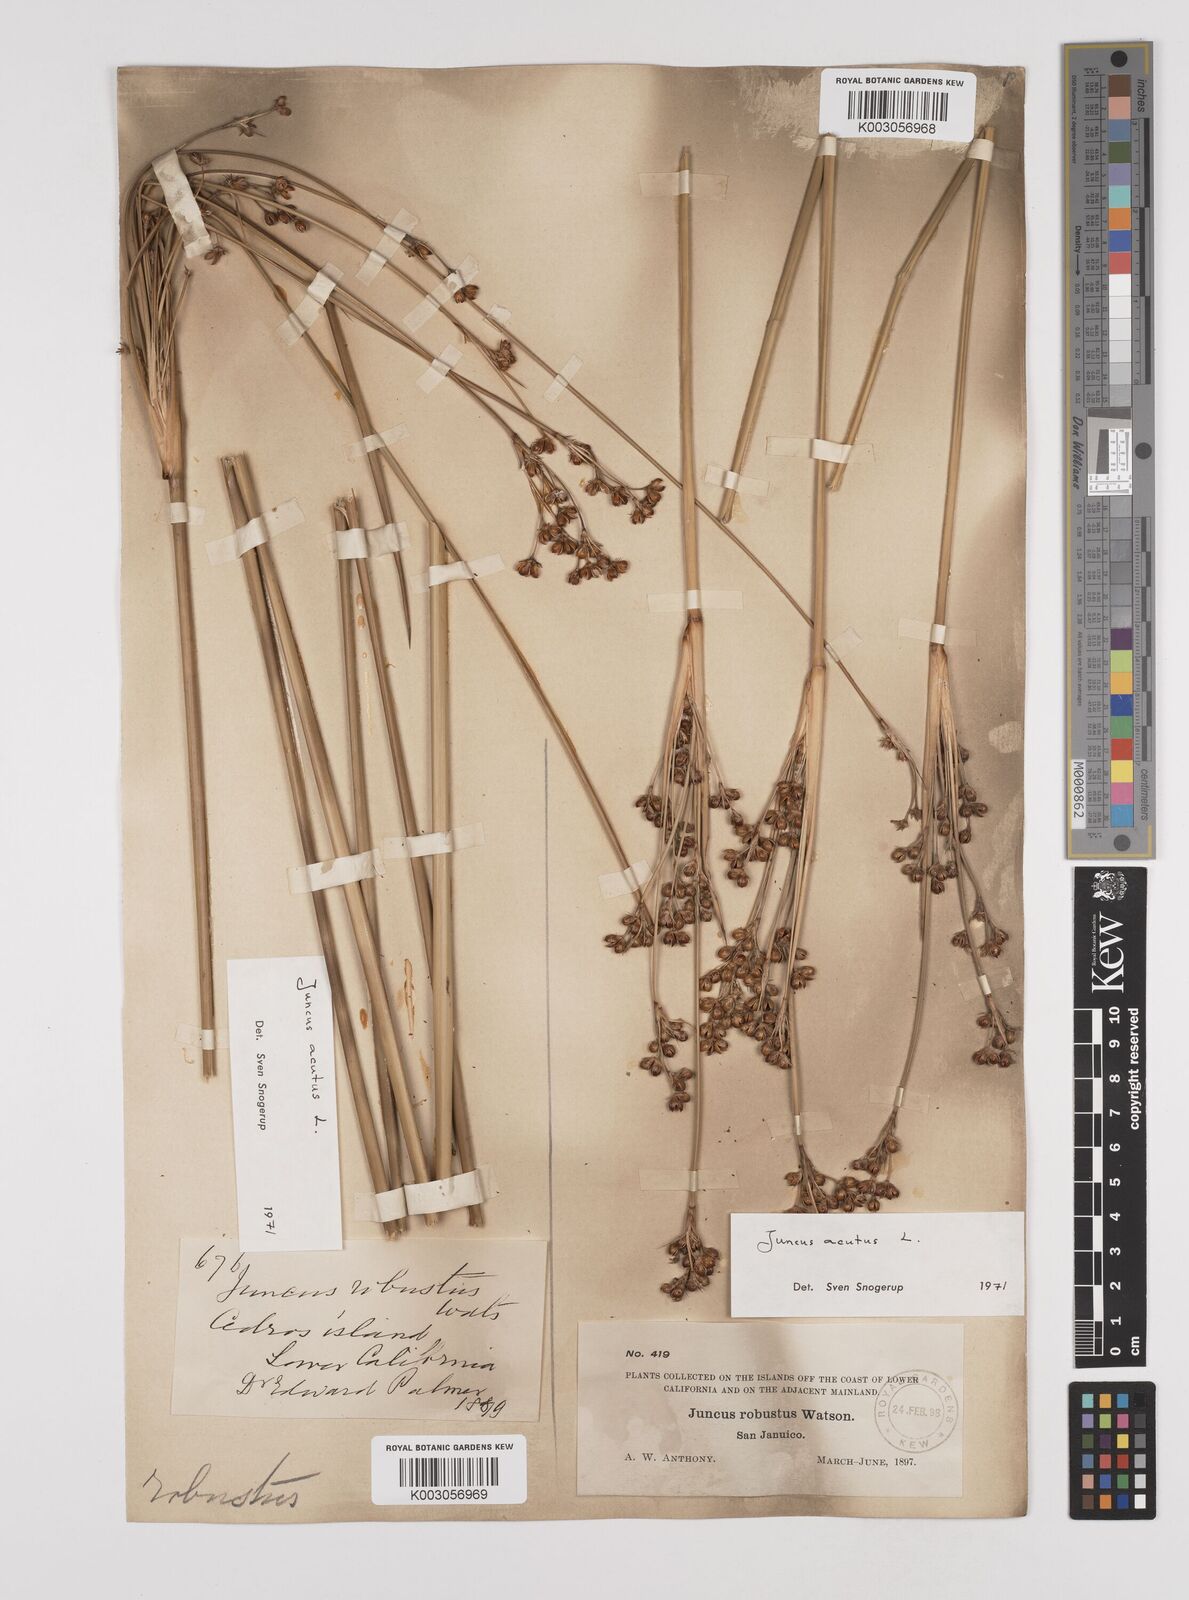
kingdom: Plantae
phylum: Tracheophyta
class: Liliopsida
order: Poales
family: Juncaceae
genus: Juncus
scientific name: Juncus acutus
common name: Sharp rush
